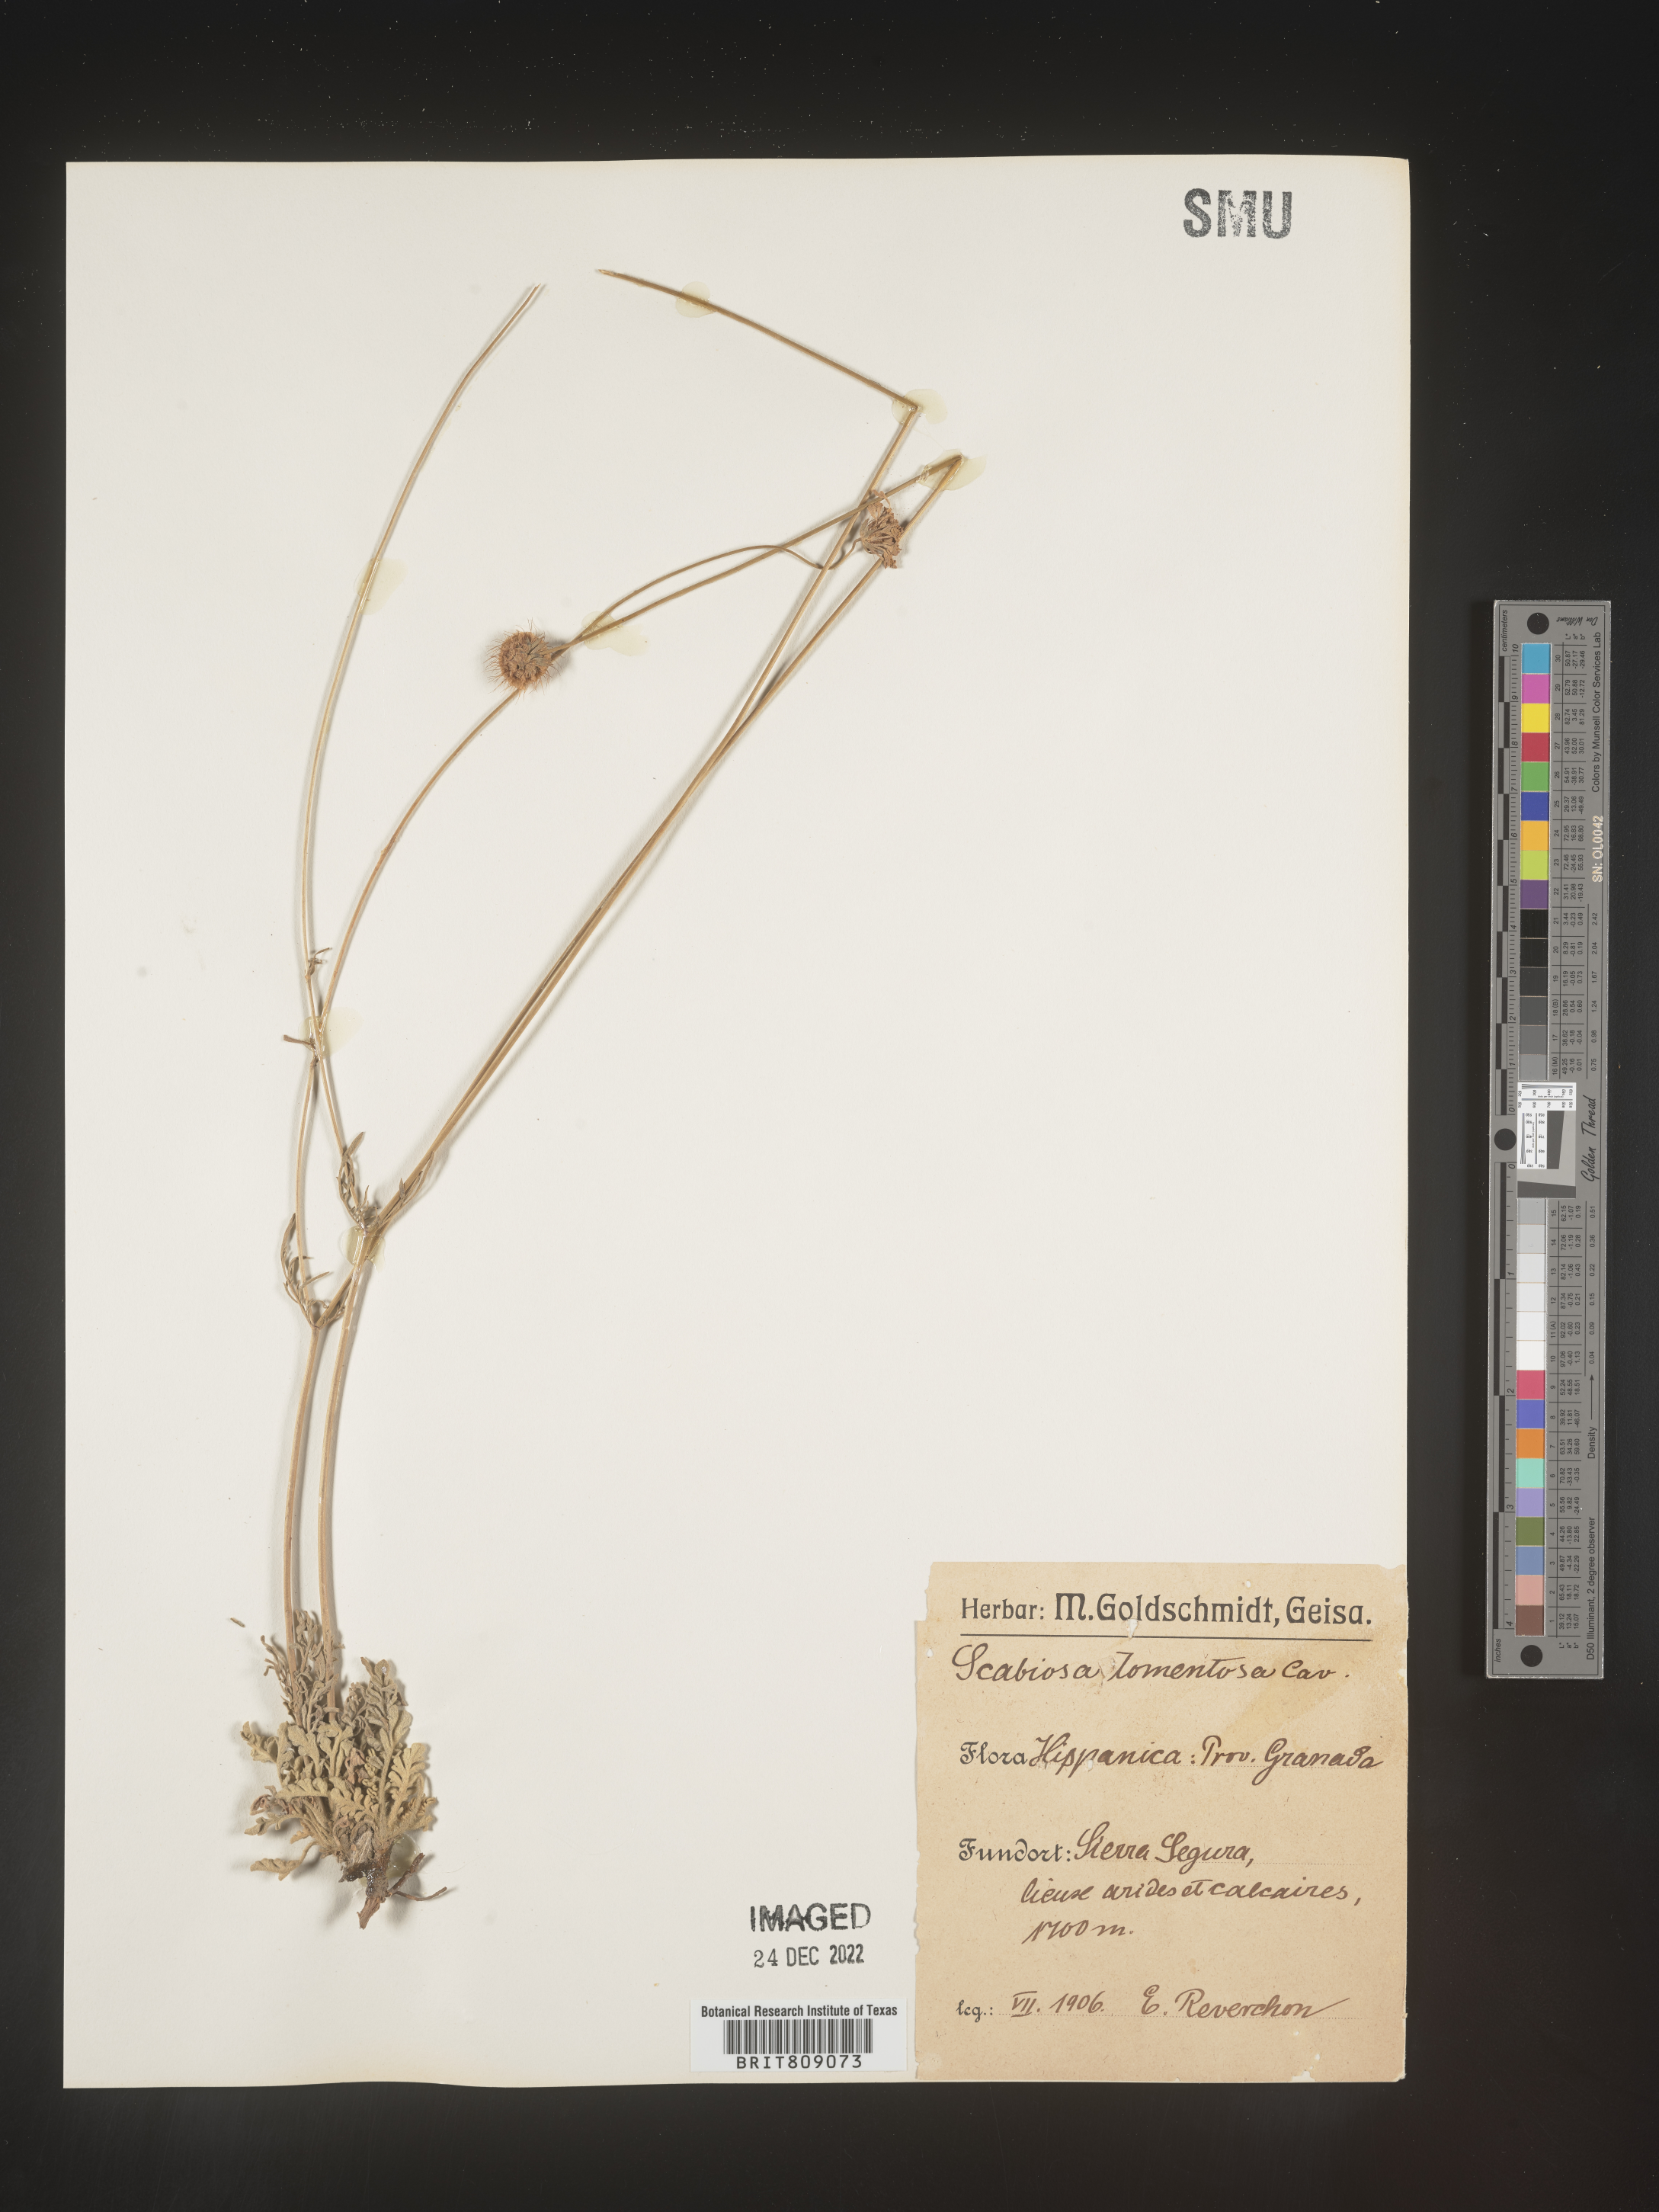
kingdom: Plantae
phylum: Tracheophyta
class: Magnoliopsida
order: Dipsacales
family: Caprifoliaceae
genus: Scabiosa
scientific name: Scabiosa
